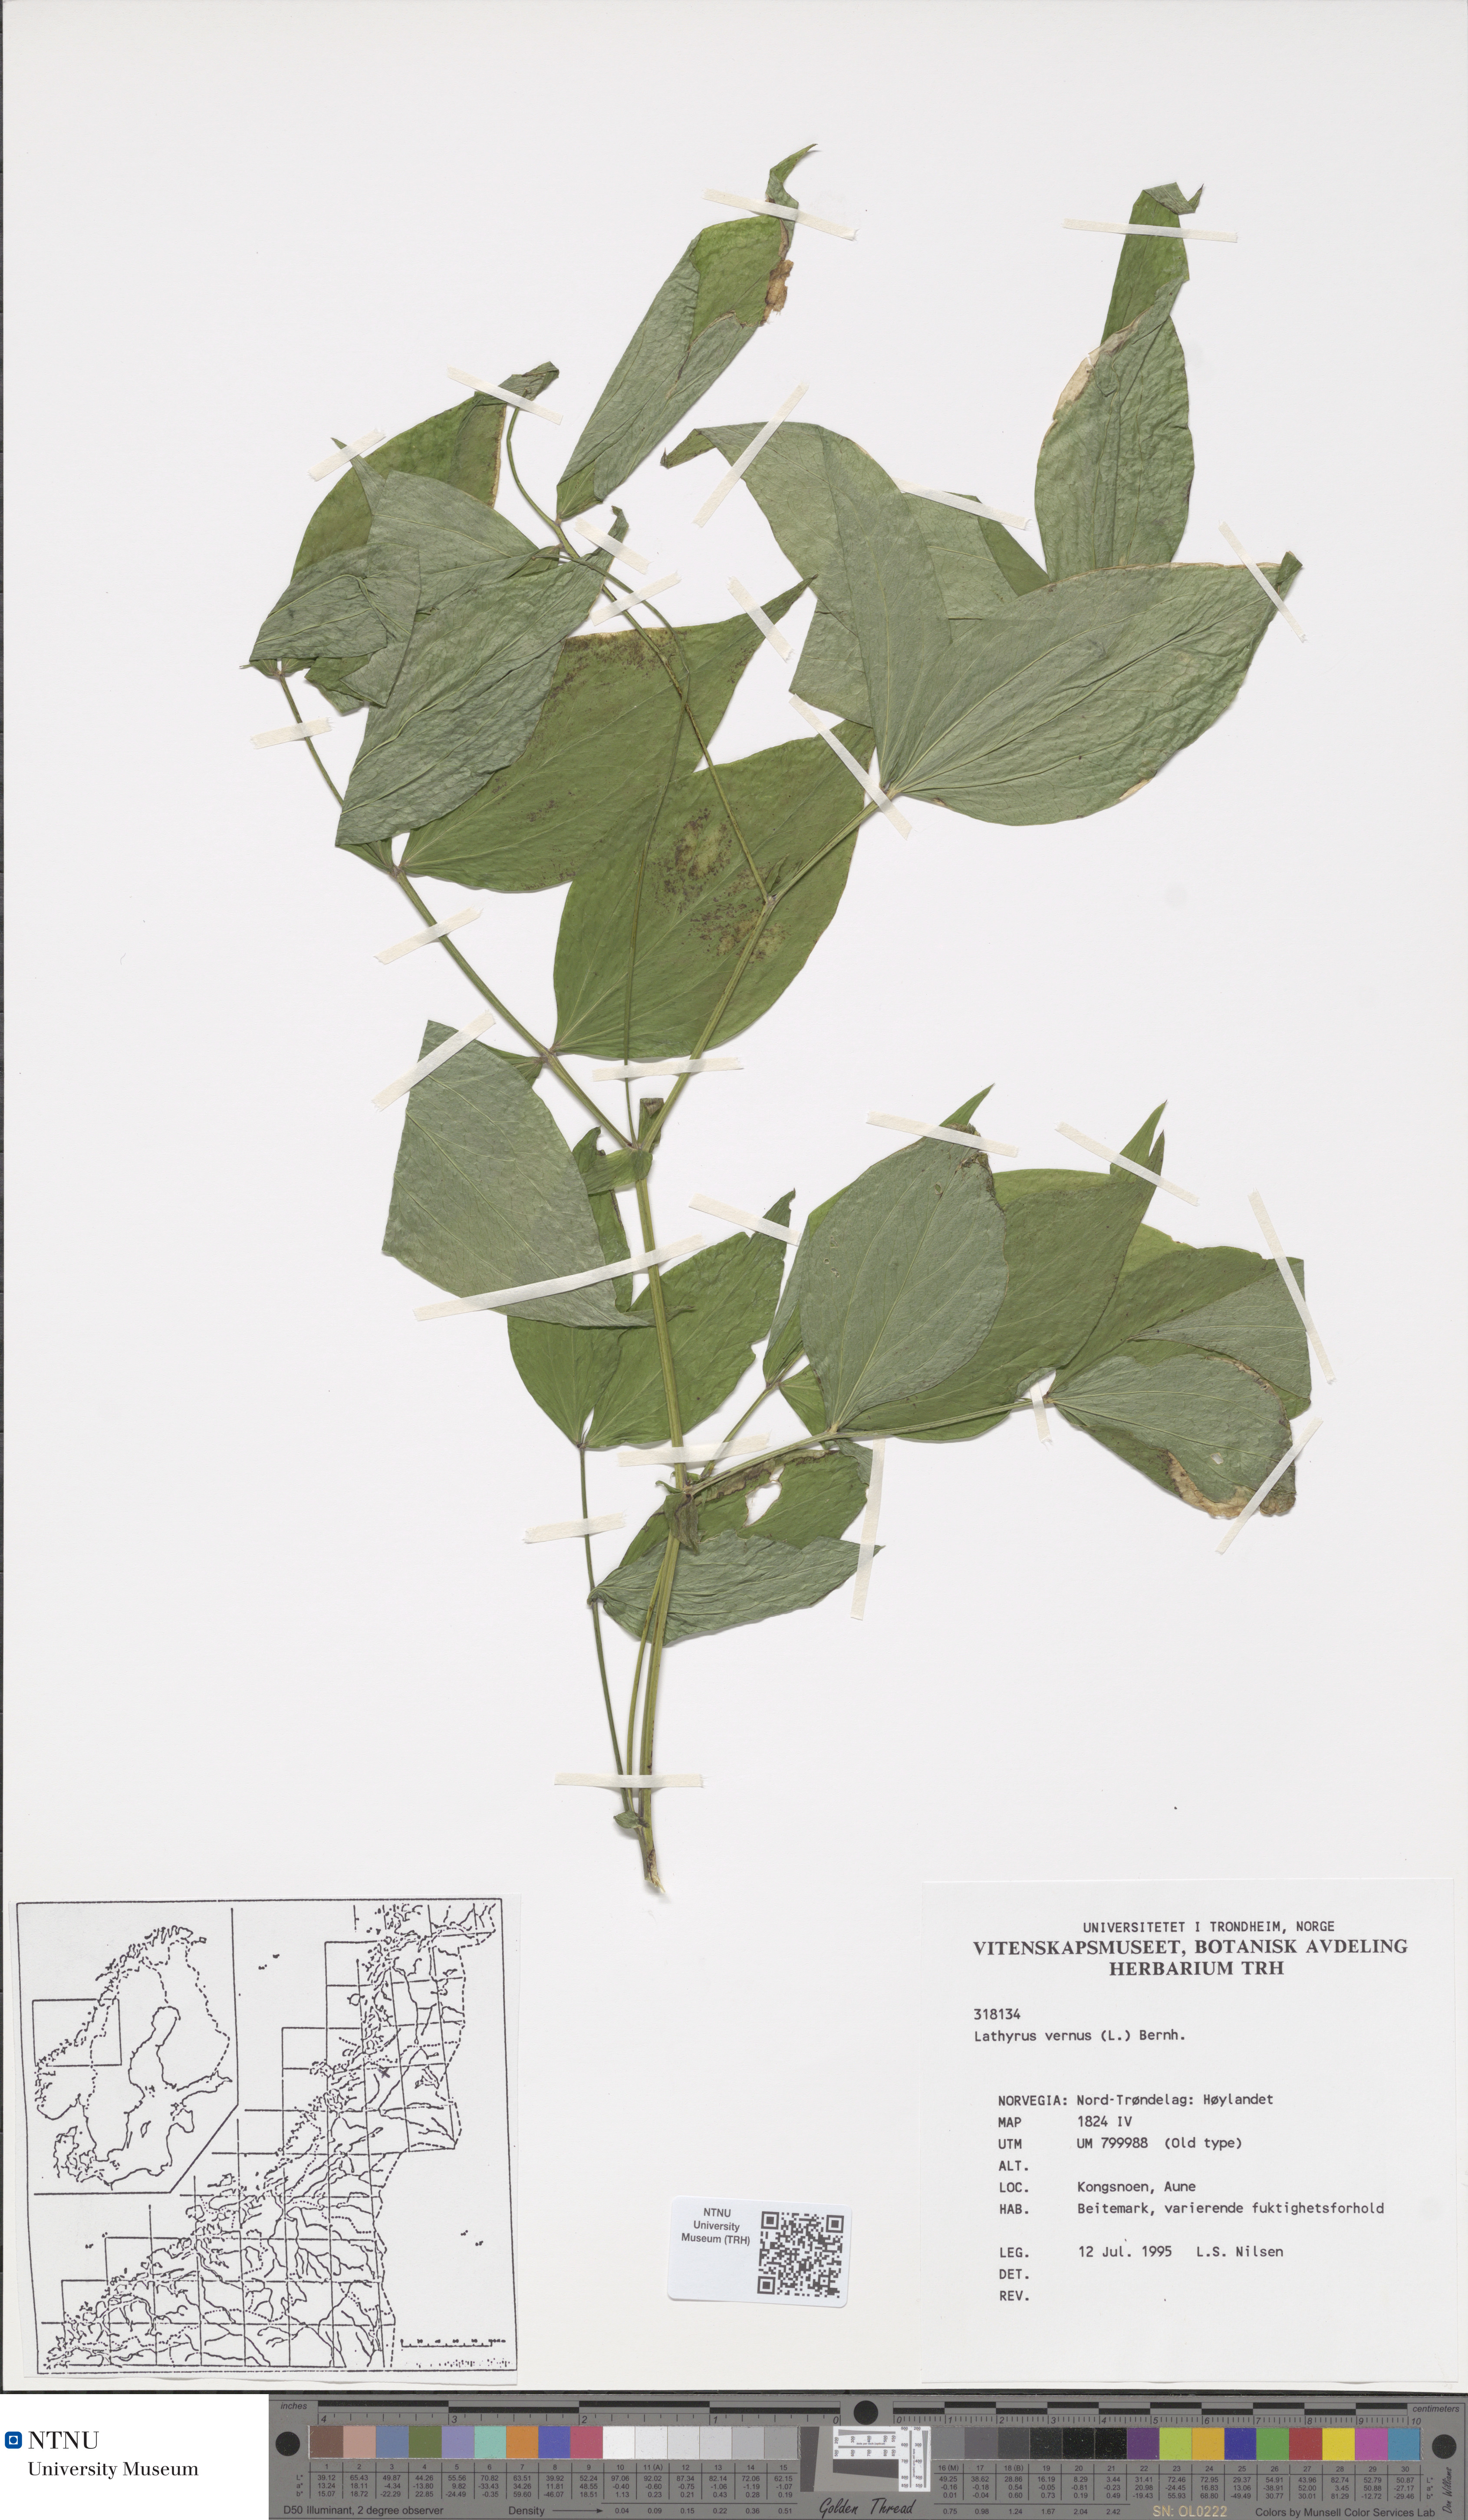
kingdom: Plantae
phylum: Tracheophyta
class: Magnoliopsida
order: Fabales
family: Fabaceae
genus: Lathyrus
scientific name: Lathyrus vernus
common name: Spring pea
